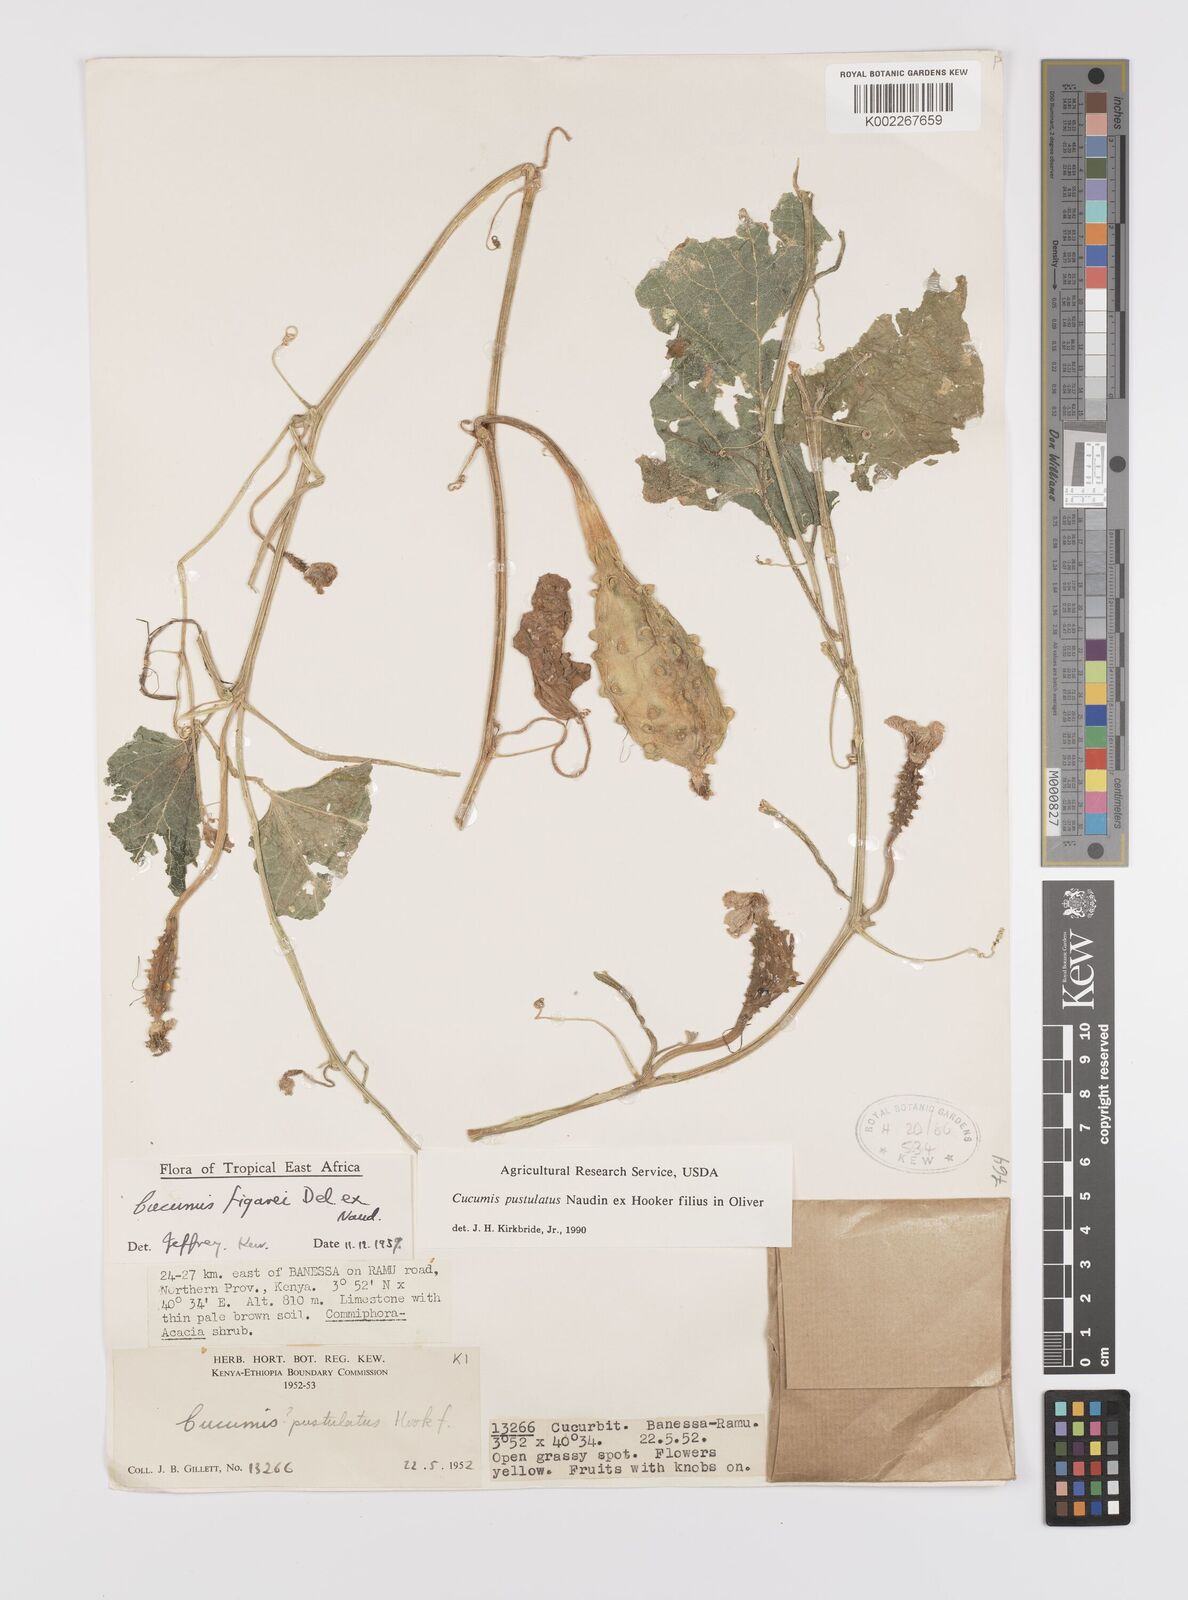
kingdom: Plantae
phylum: Tracheophyta
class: Magnoliopsida
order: Cucurbitales
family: Cucurbitaceae
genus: Cucumis
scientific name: Cucumis pustulatus
